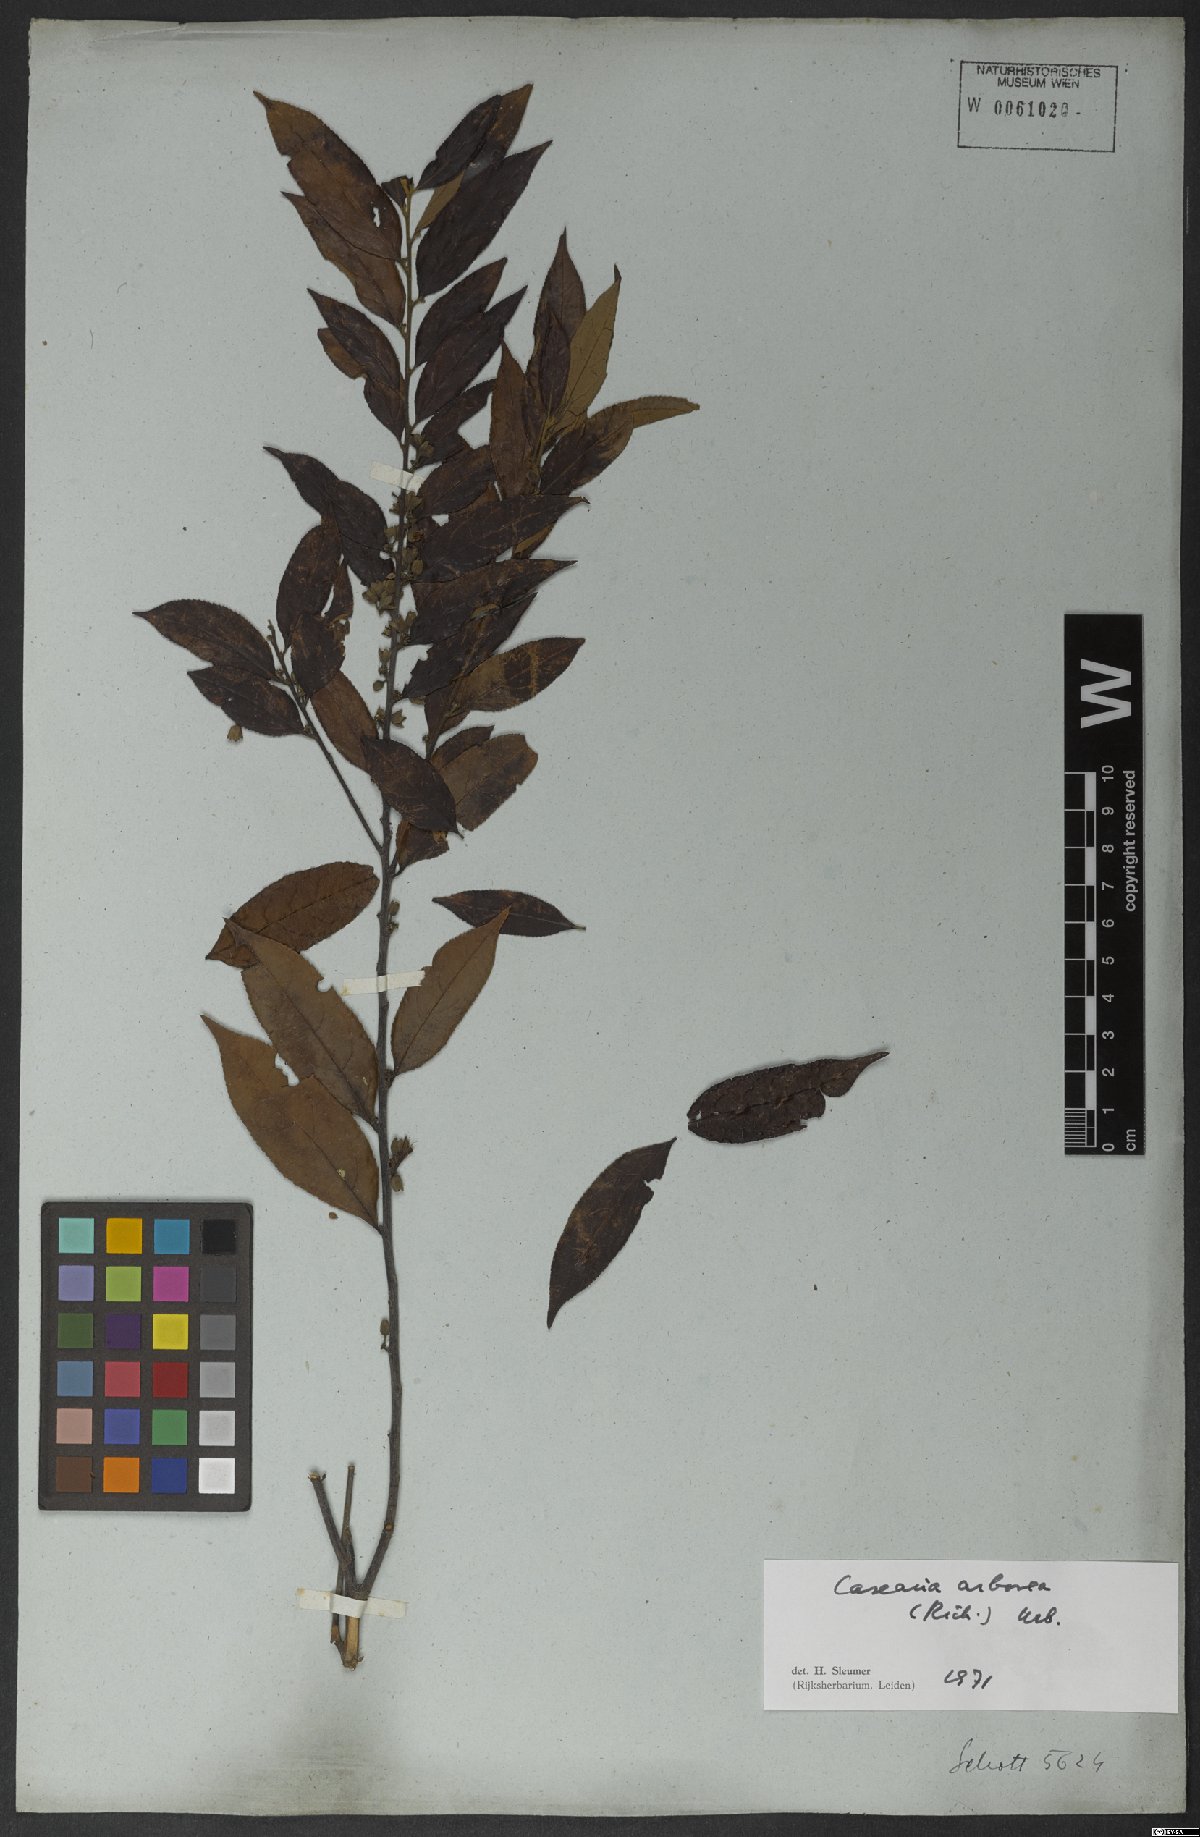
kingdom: Plantae
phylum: Tracheophyta
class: Magnoliopsida
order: Malpighiales
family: Salicaceae
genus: Casearia
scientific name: Casearia arborea
